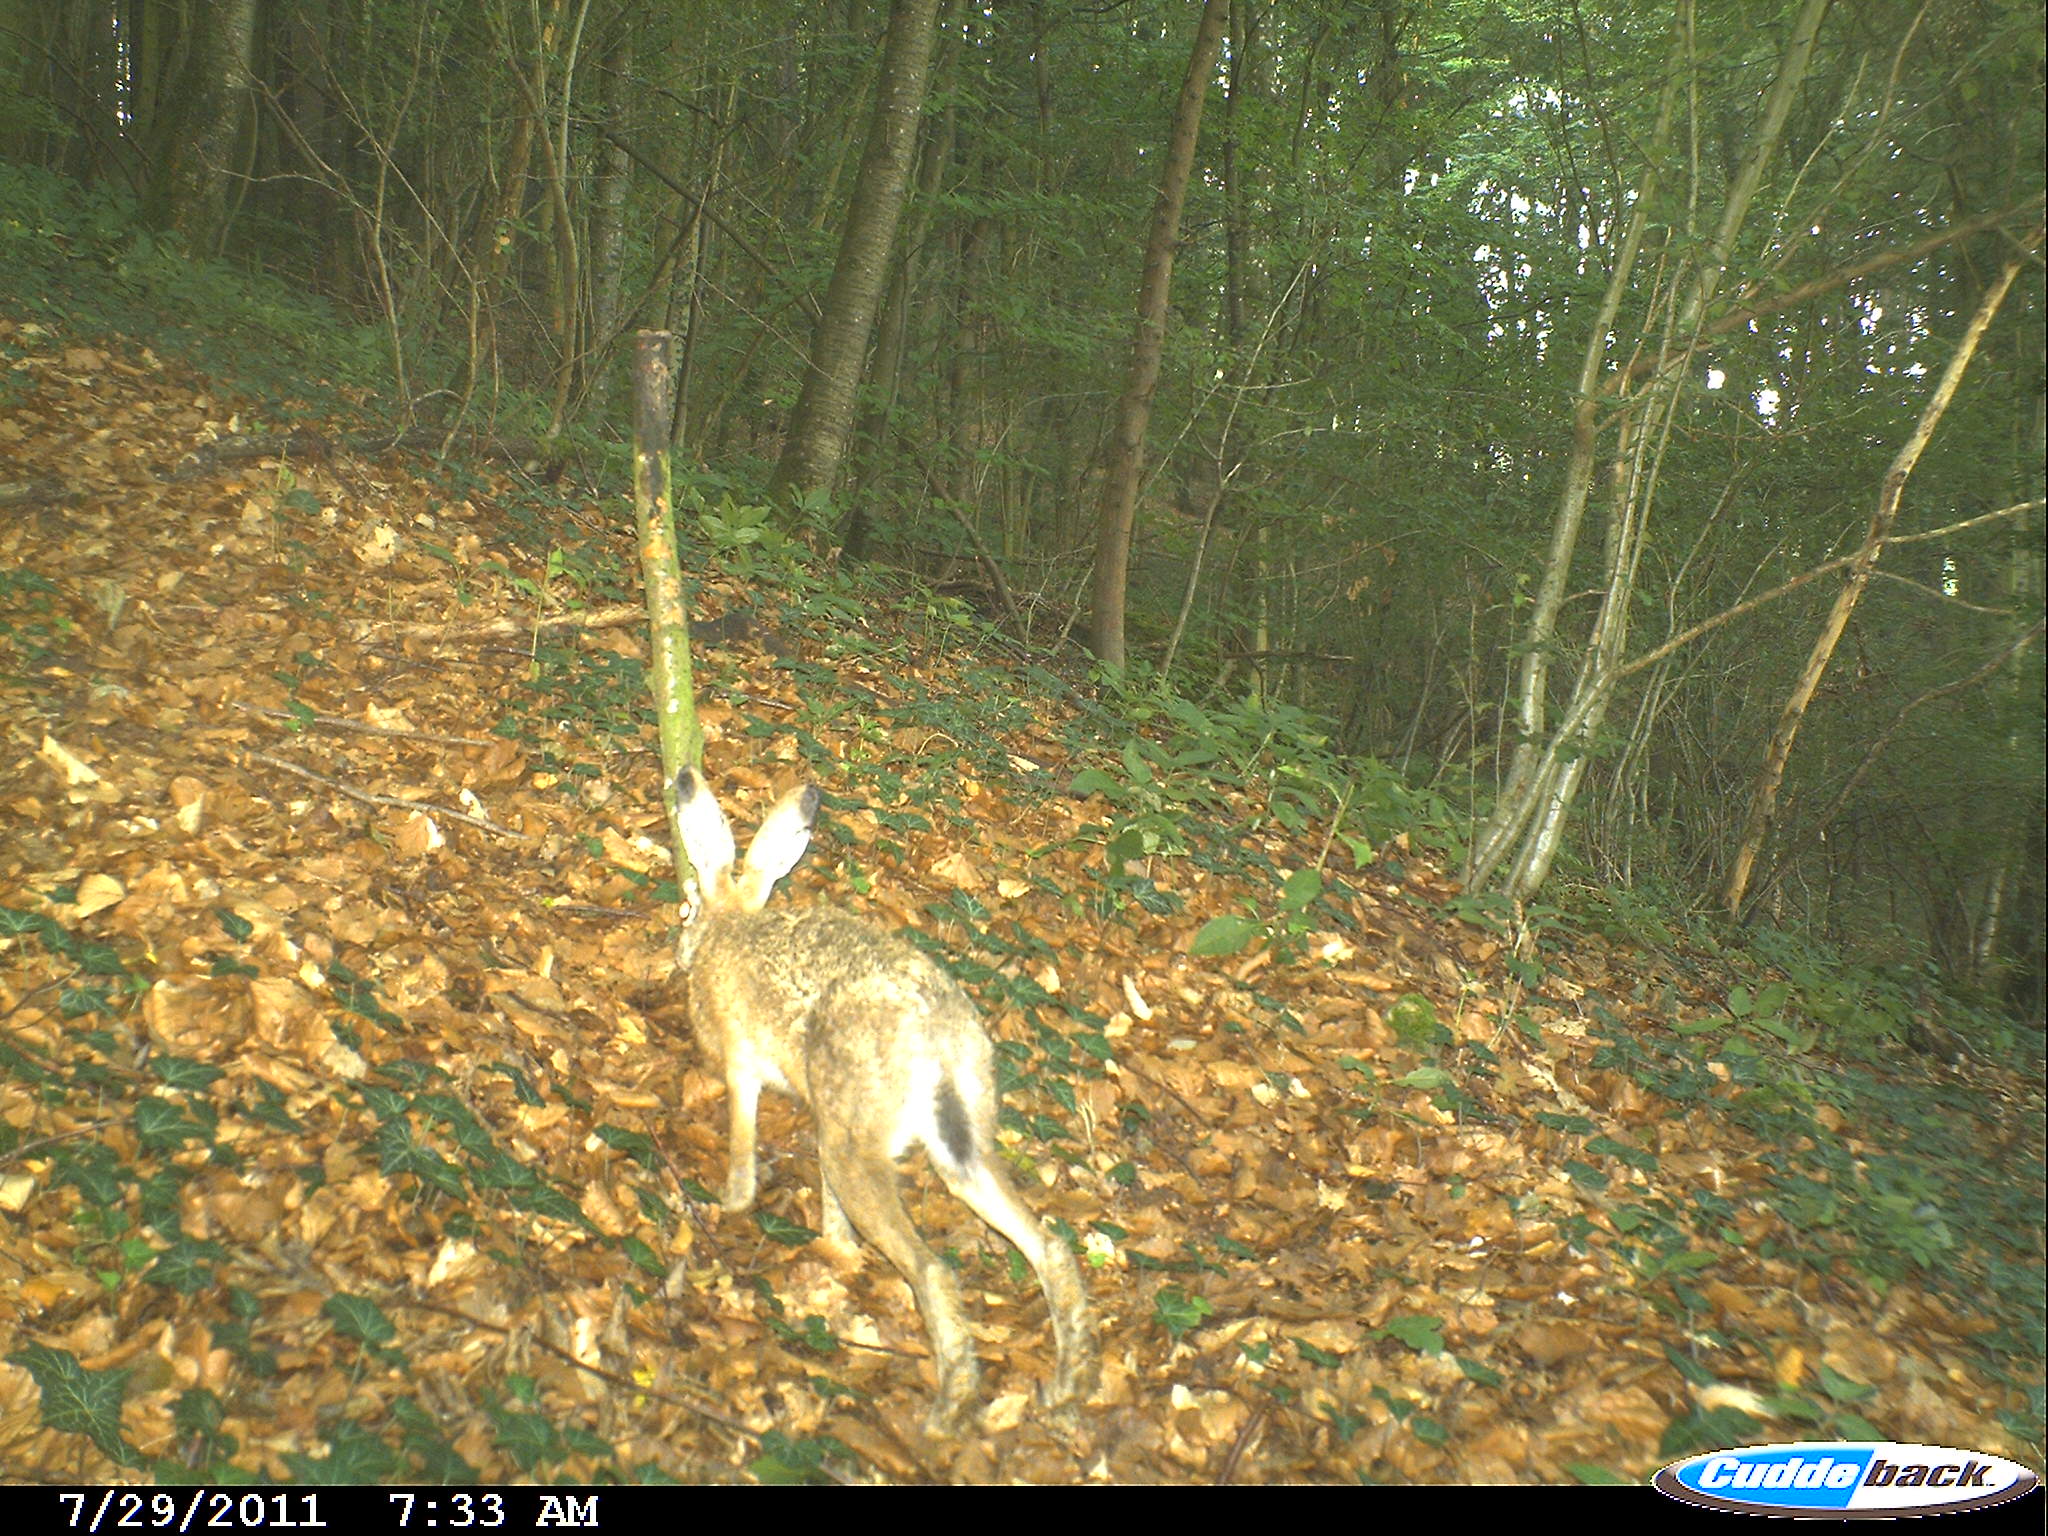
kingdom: Animalia
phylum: Chordata
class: Mammalia
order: Lagomorpha
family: Leporidae
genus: Lepus
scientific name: Lepus europaeus
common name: European hare
